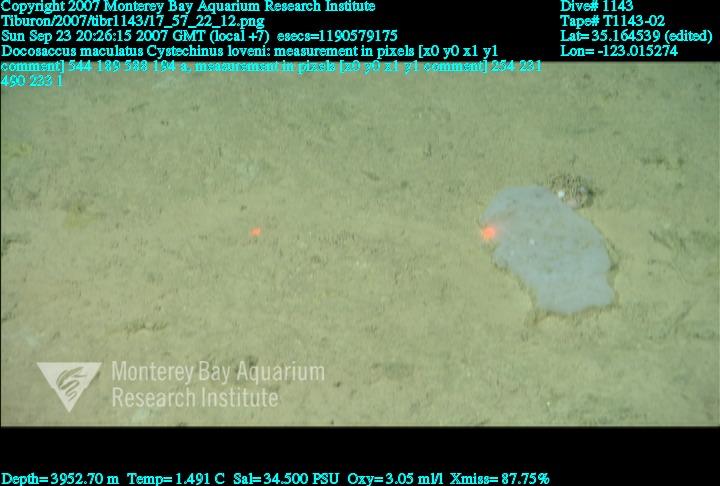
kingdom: Animalia
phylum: Porifera
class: Hexactinellida
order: Lyssacinosida
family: Euplectellidae
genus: Docosaccus
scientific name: Docosaccus maculatus
